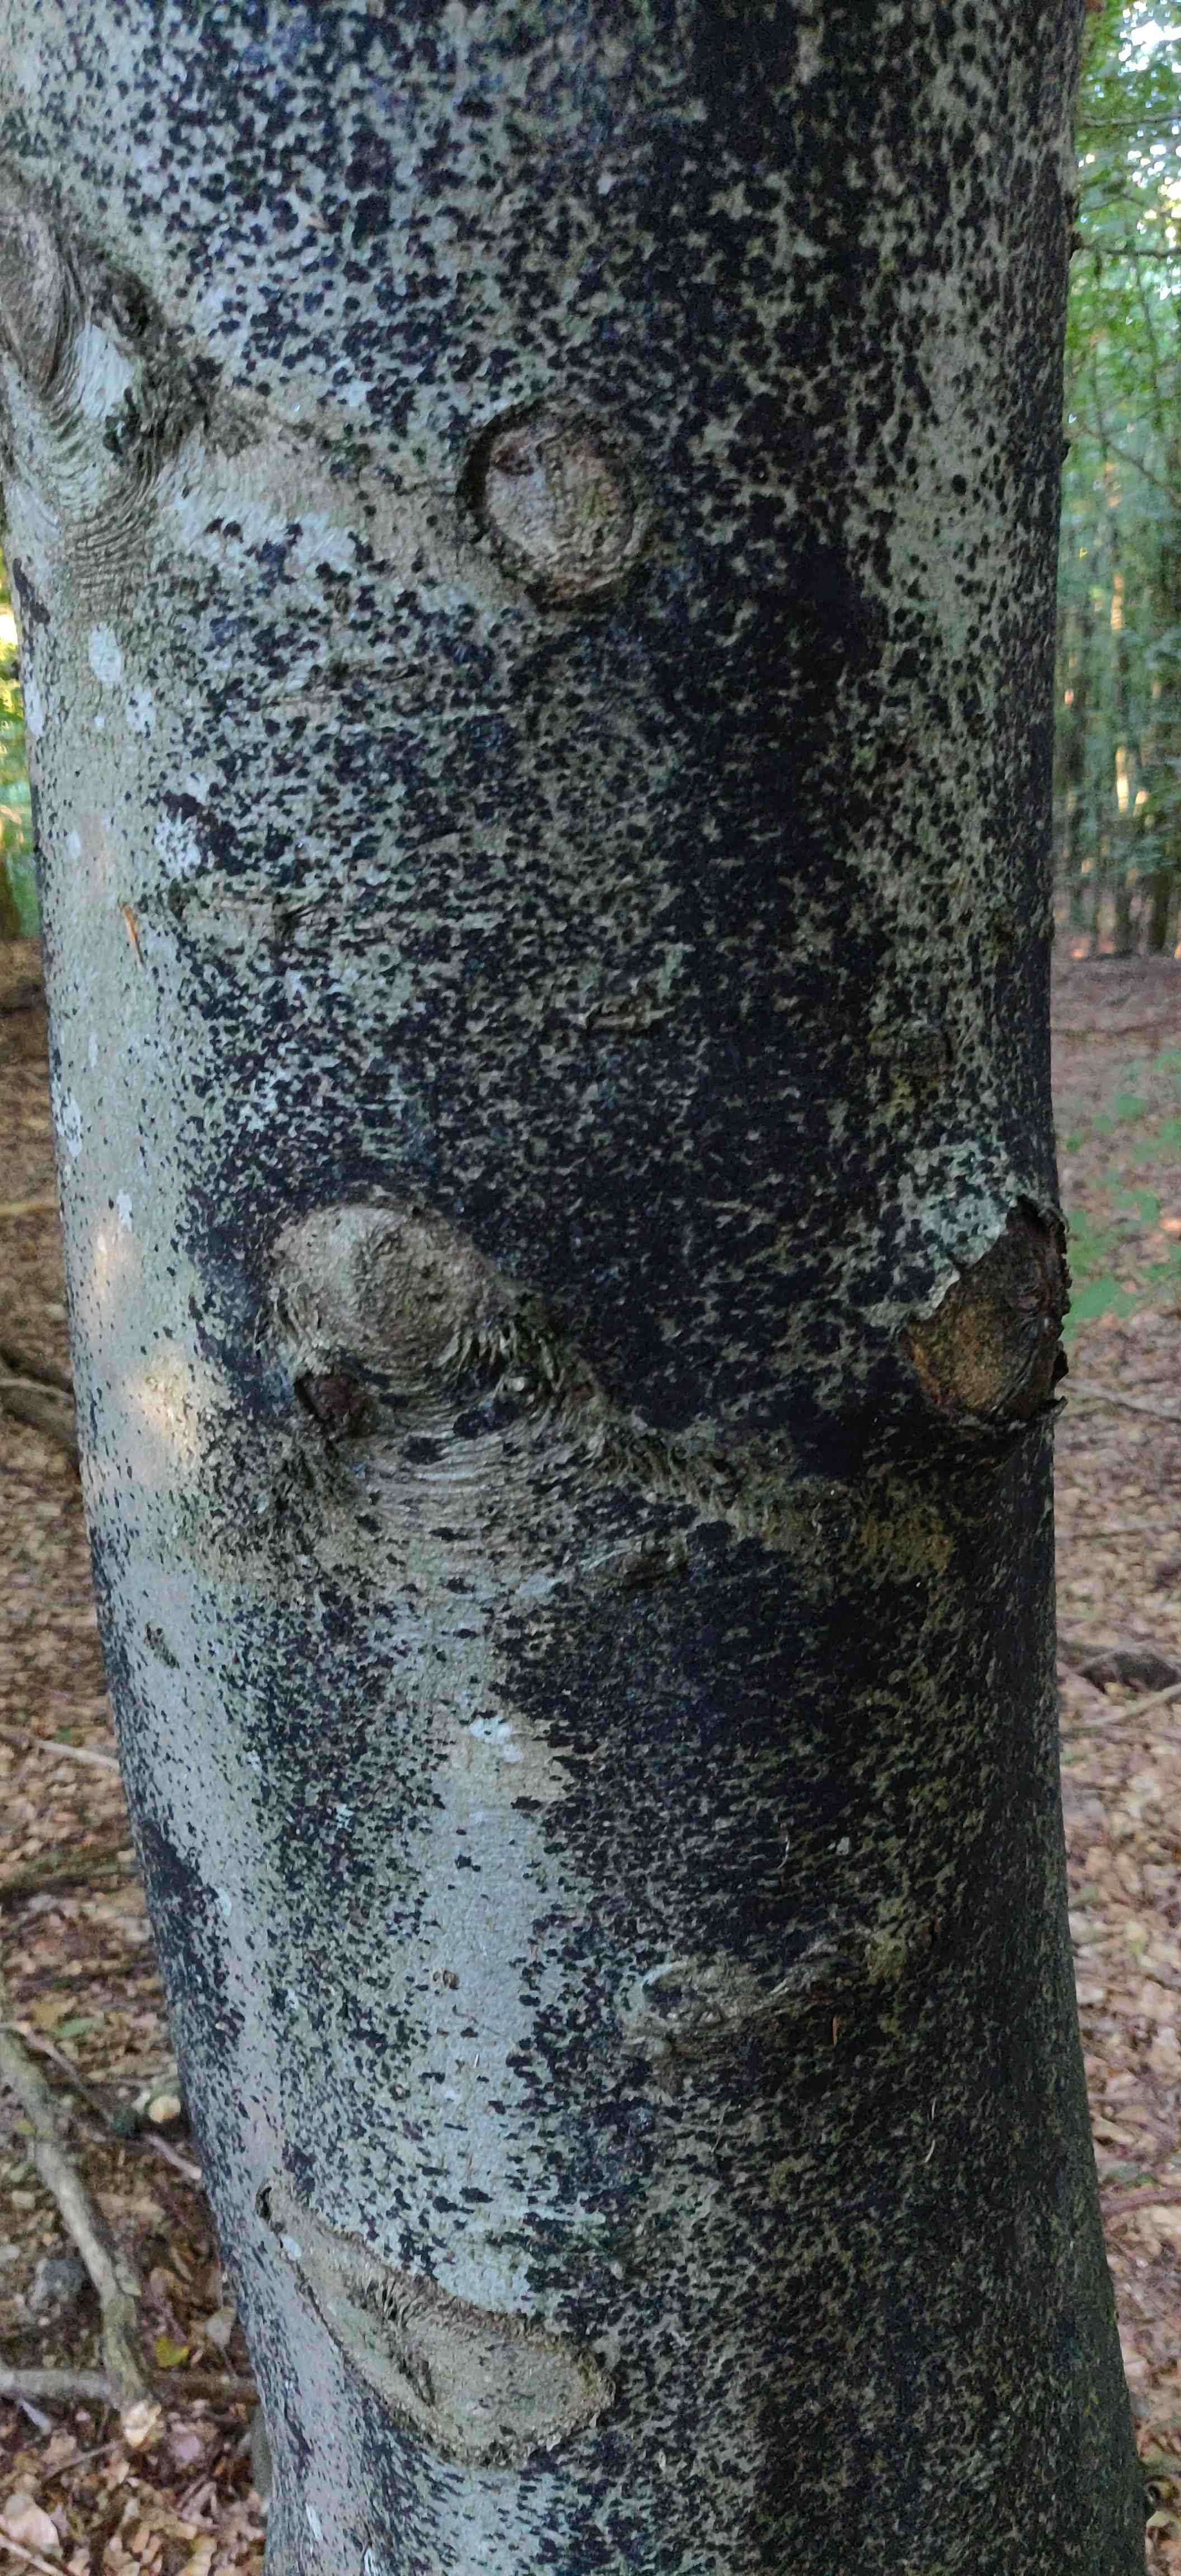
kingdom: Fungi
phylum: Ascomycota
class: Leotiomycetes
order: Rhytismatales
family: Ascodichaenaceae
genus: Ascodichaena
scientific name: Ascodichaena rugosa
